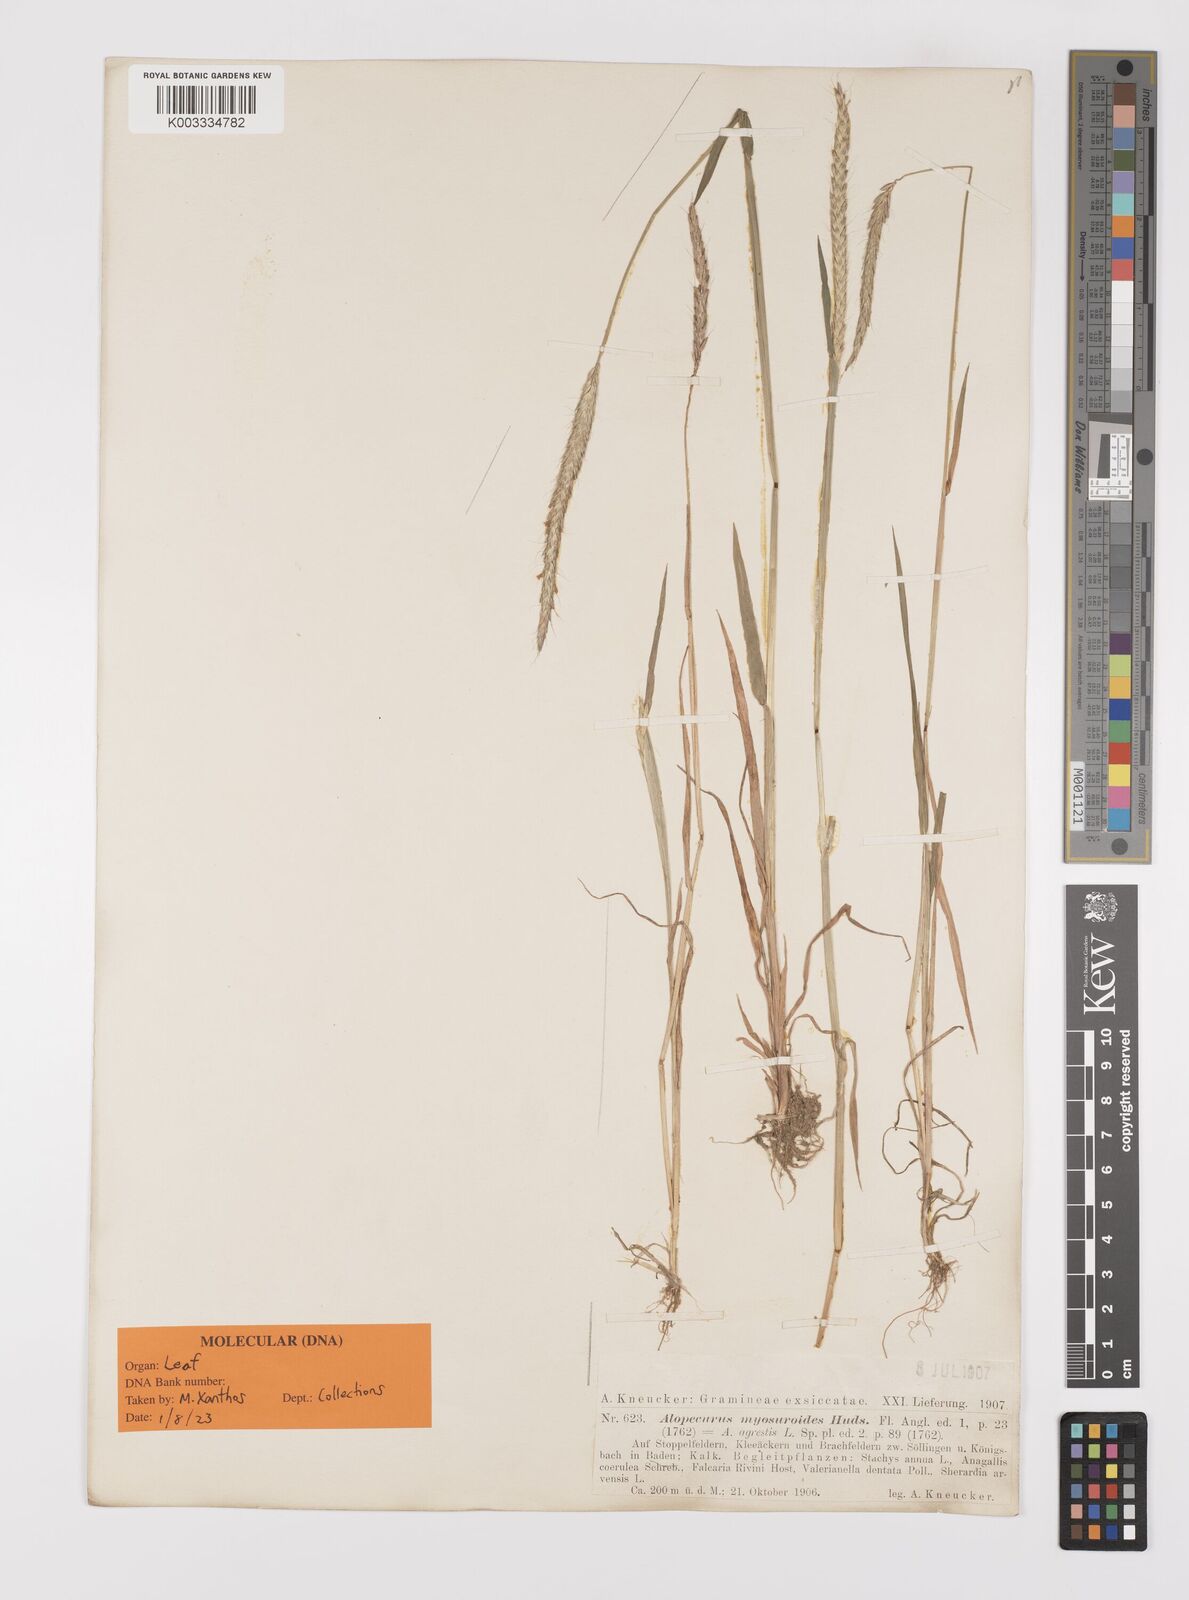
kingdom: Plantae
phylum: Tracheophyta
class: Liliopsida
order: Poales
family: Poaceae
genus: Alopecurus
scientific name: Alopecurus myosuroides
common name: Black-grass
